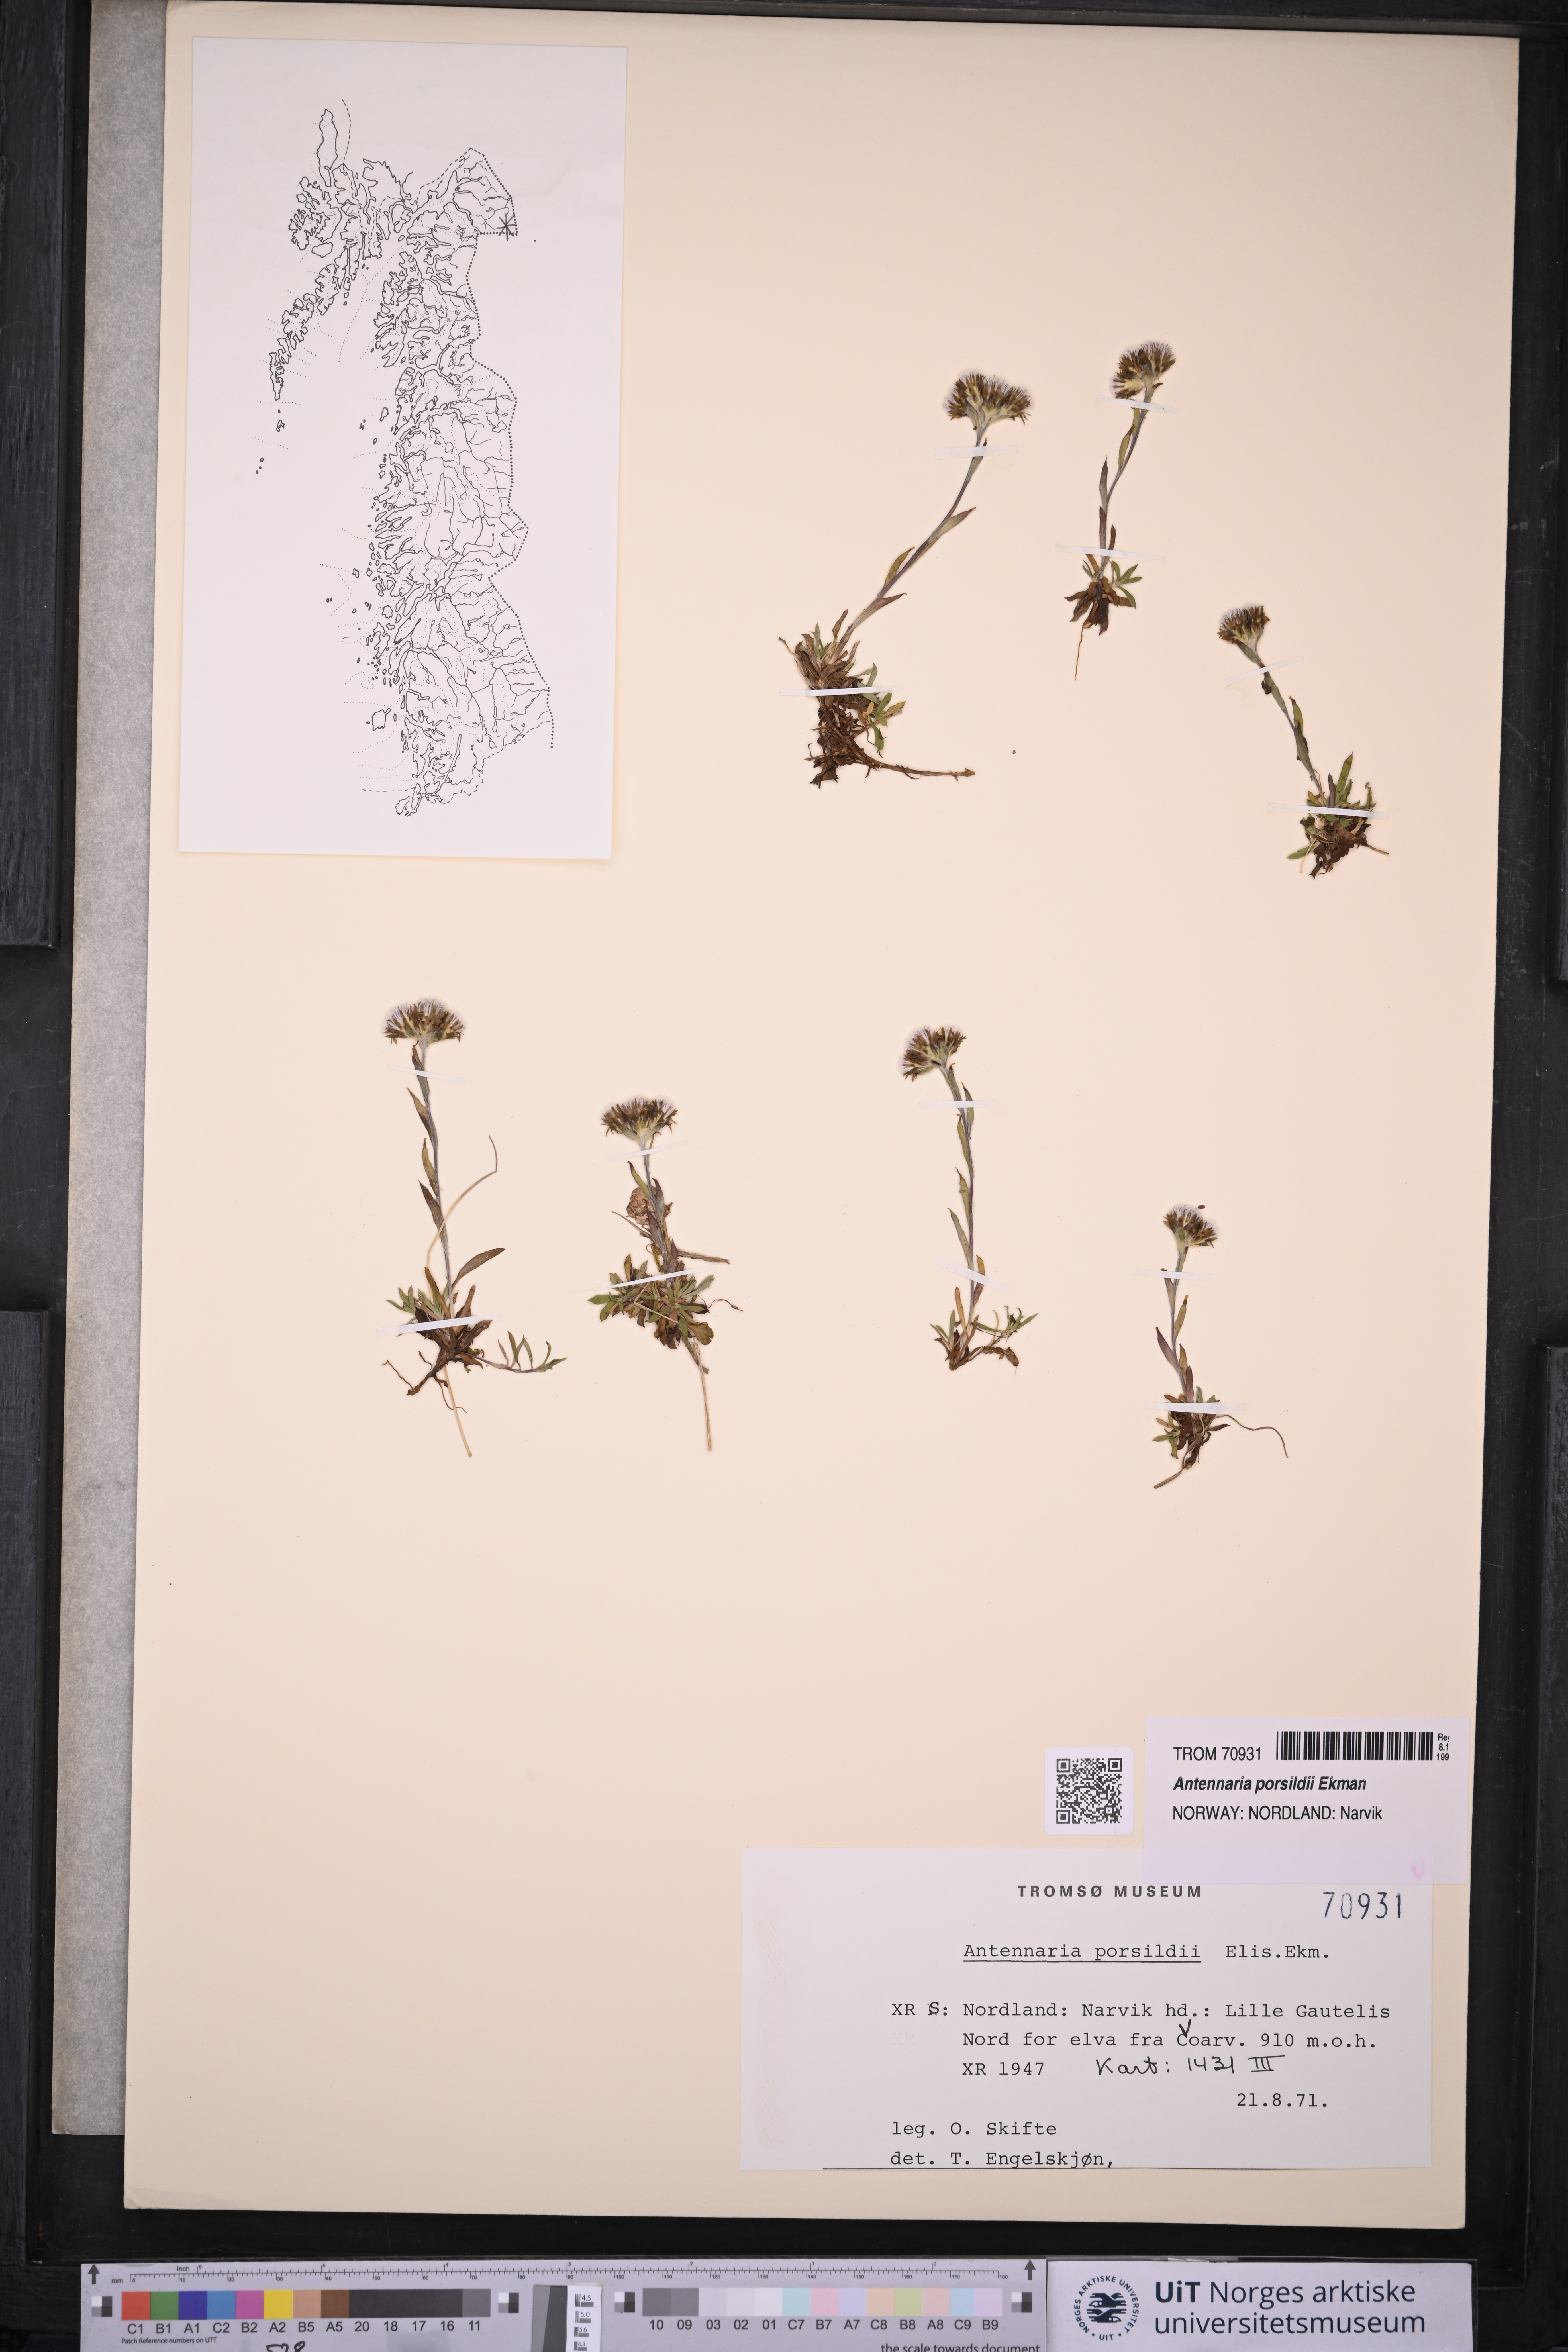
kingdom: Plantae
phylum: Tracheophyta
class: Magnoliopsida
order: Asterales
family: Asteraceae
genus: Antennaria
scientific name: Antennaria porsildii
